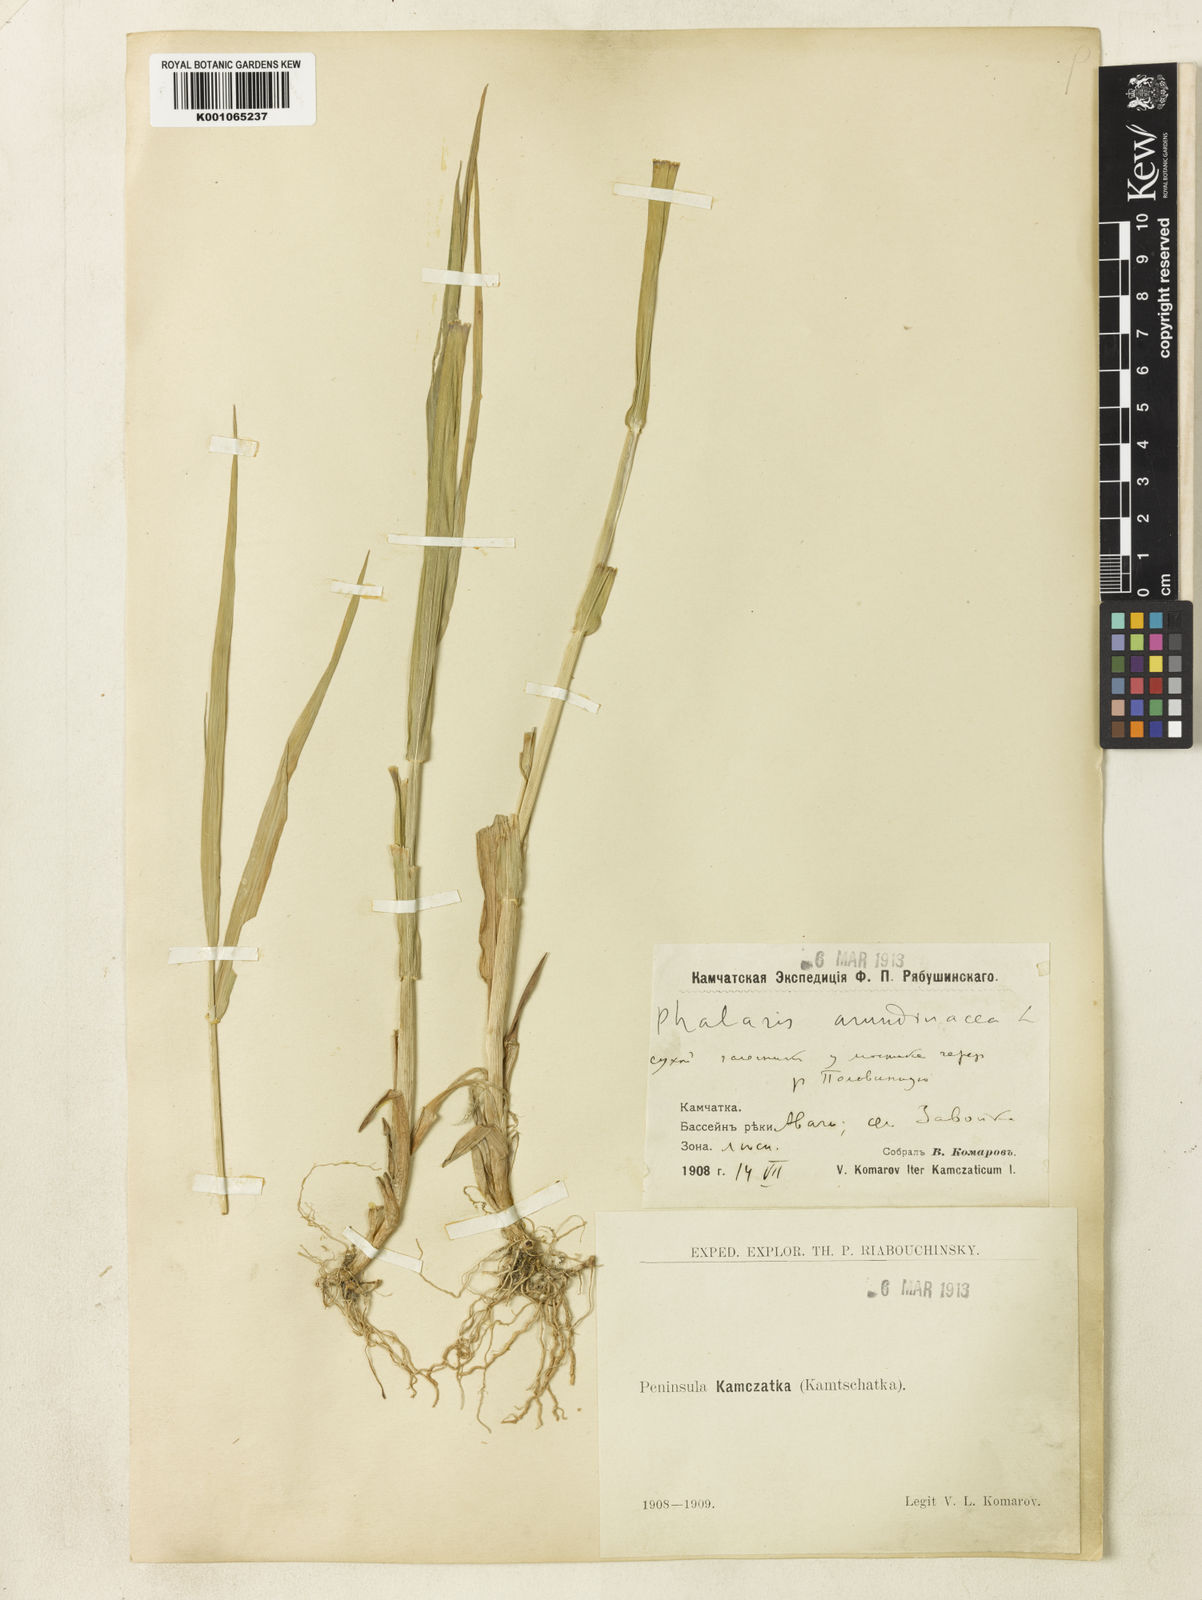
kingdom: Plantae
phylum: Tracheophyta
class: Liliopsida
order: Poales
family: Poaceae
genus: Phalaris
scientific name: Phalaris arundinacea
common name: Reed canary-grass
